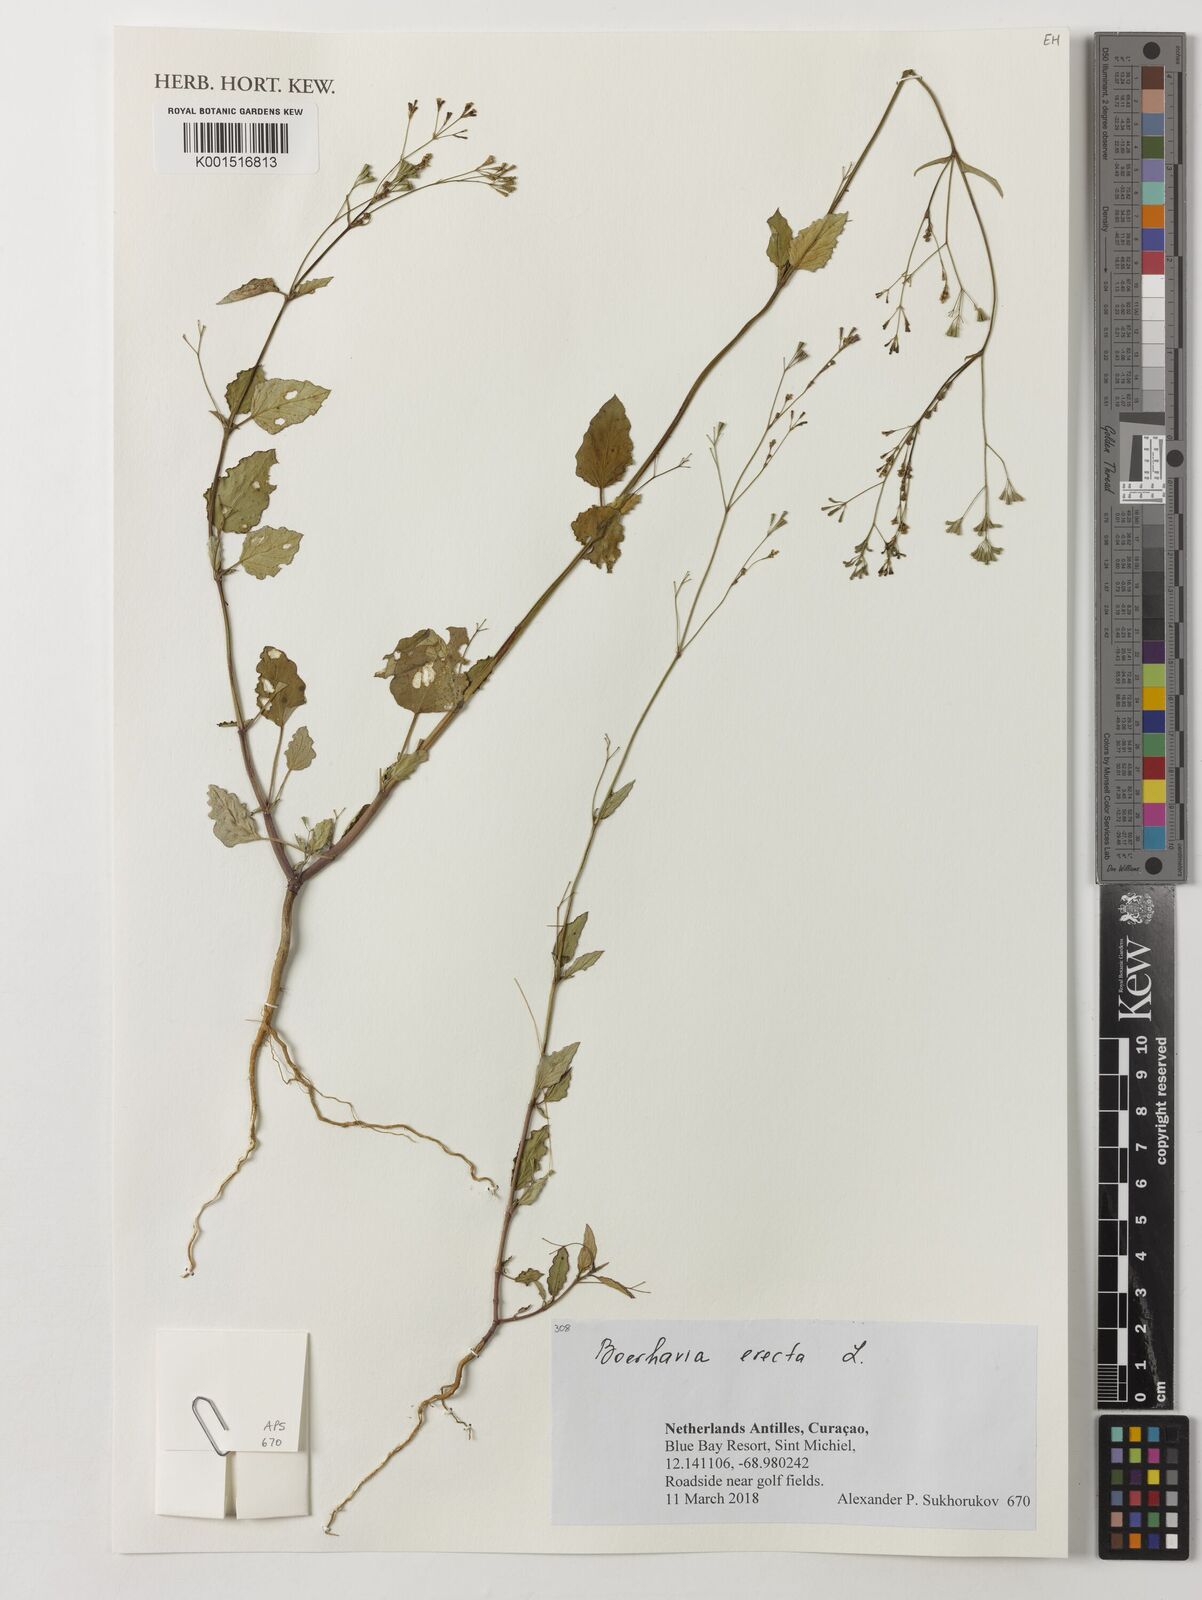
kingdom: Plantae
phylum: Tracheophyta
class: Magnoliopsida
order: Caryophyllales
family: Nyctaginaceae
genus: Boerhavia
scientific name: Boerhavia erecta
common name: Erect spiderling
